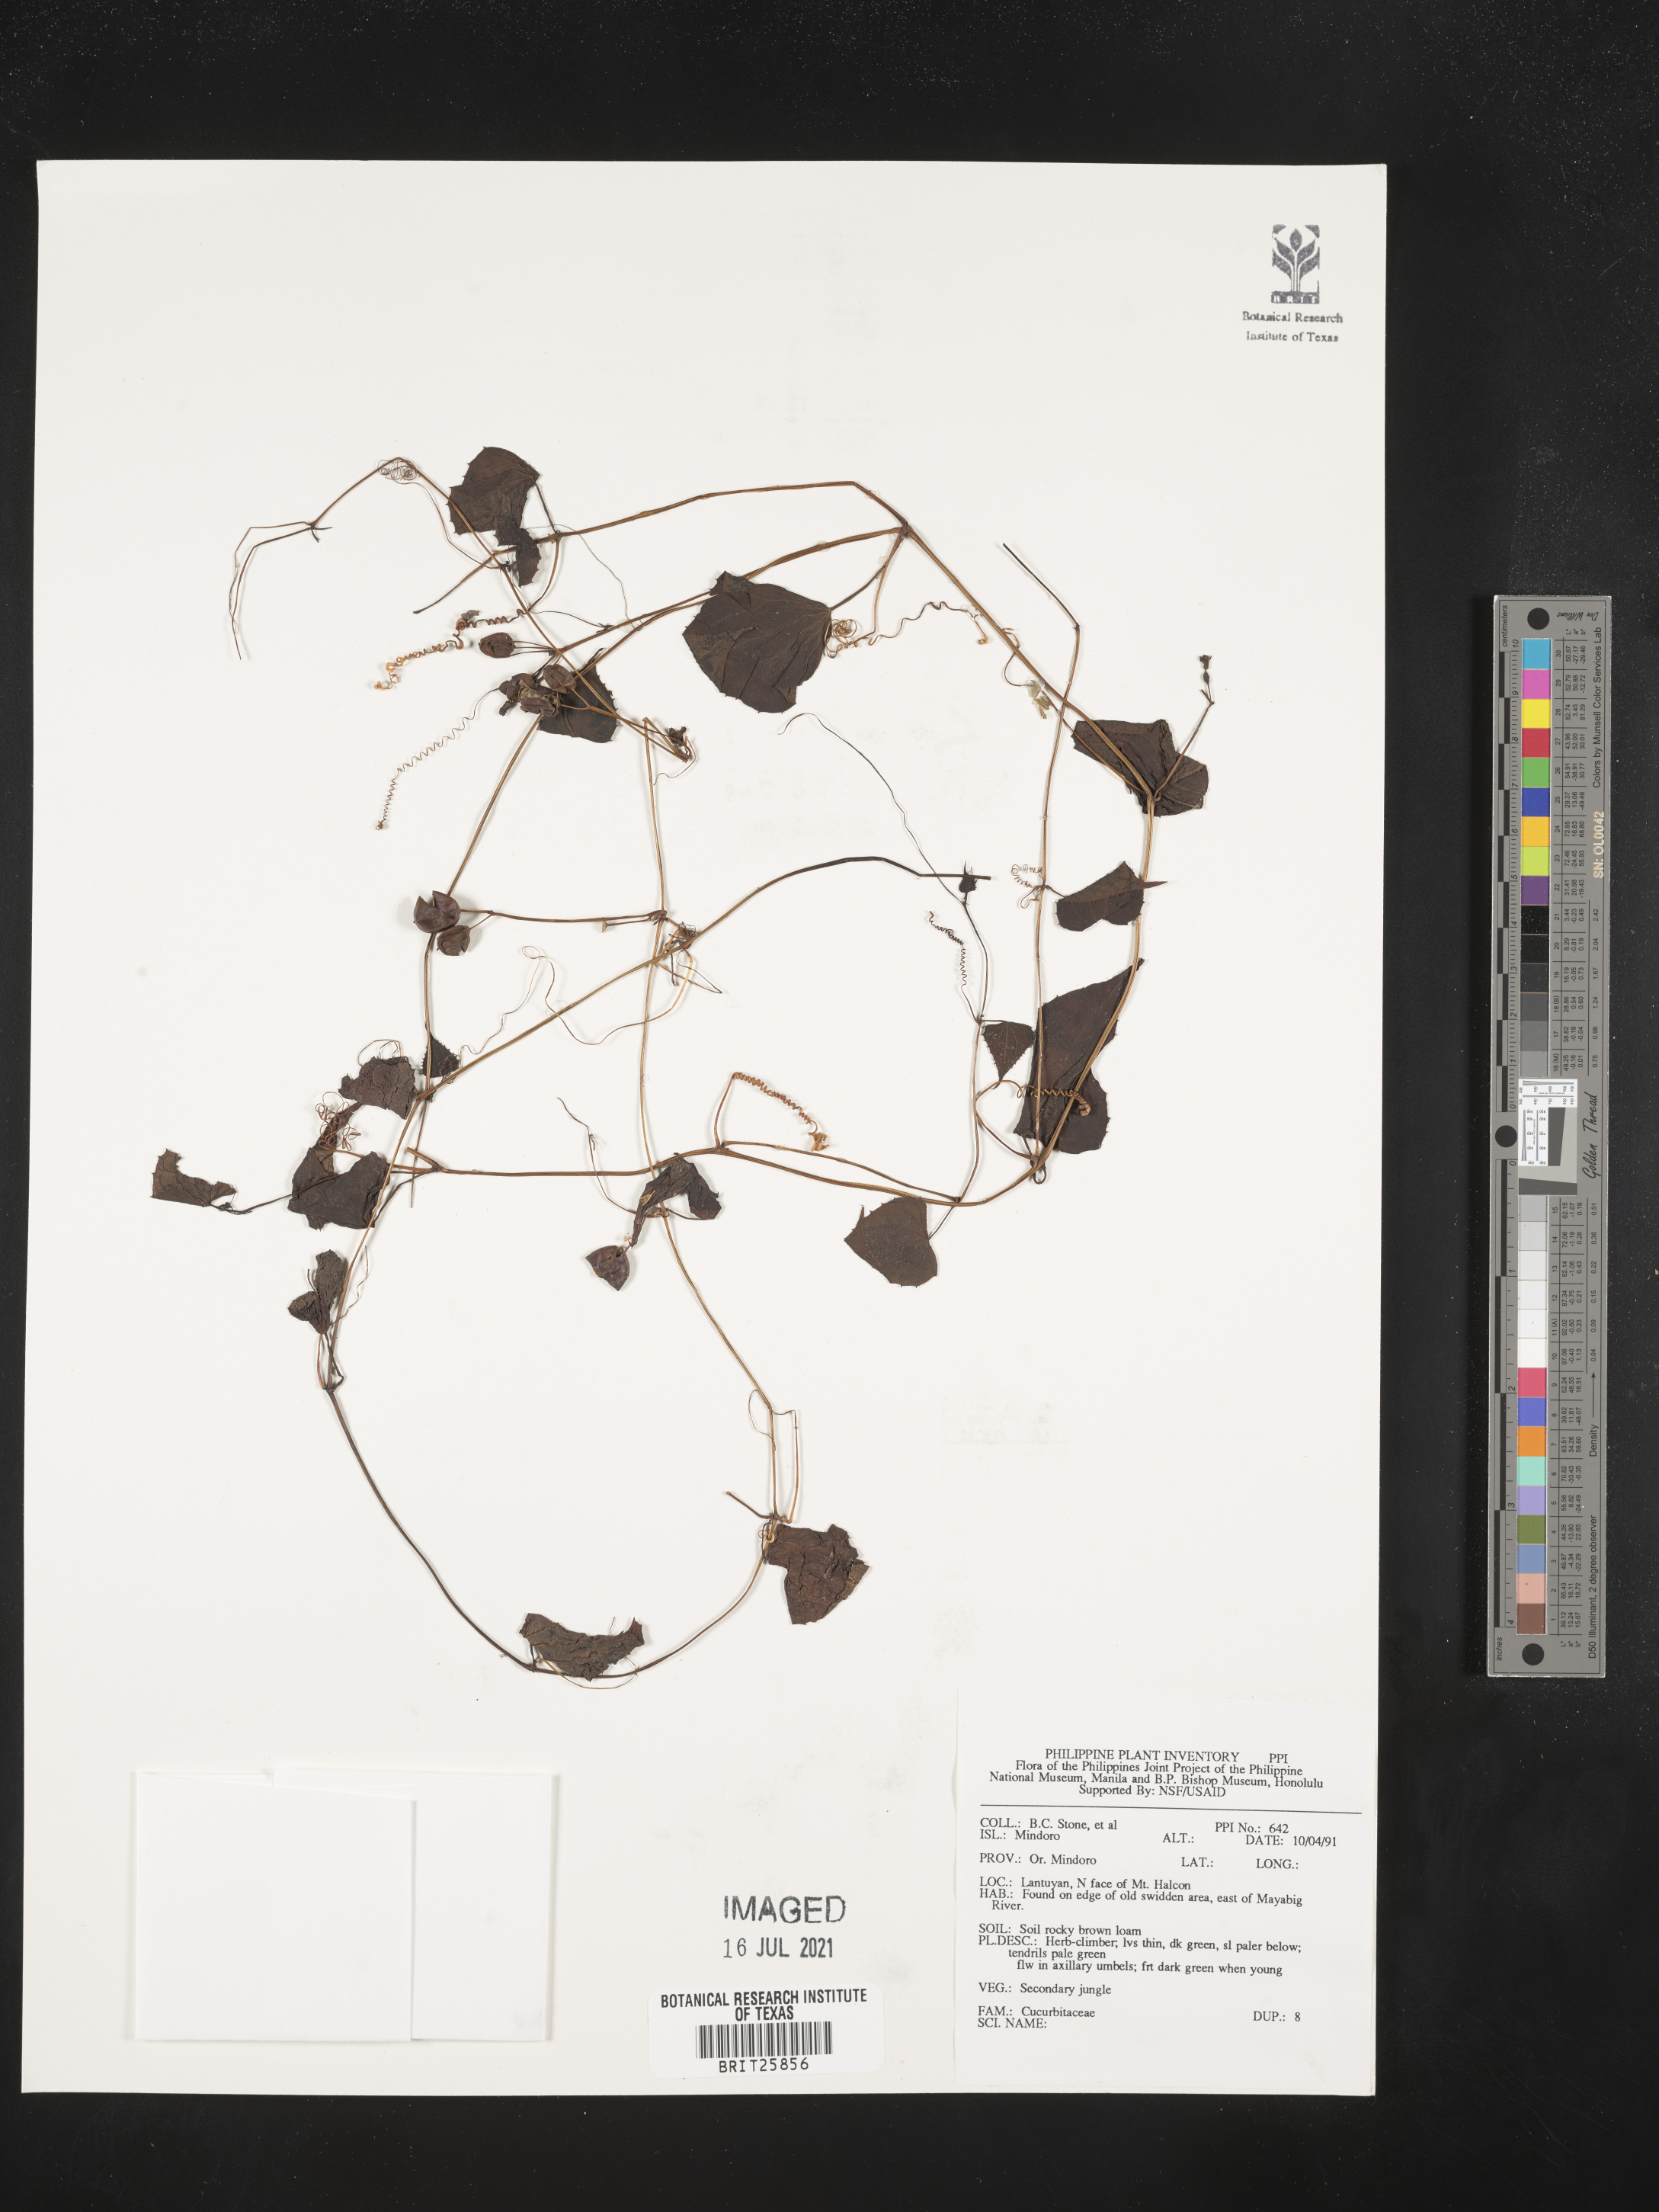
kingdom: Plantae
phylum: Tracheophyta
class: Magnoliopsida
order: Cucurbitales
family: Cucurbitaceae
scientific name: Cucurbitaceae
